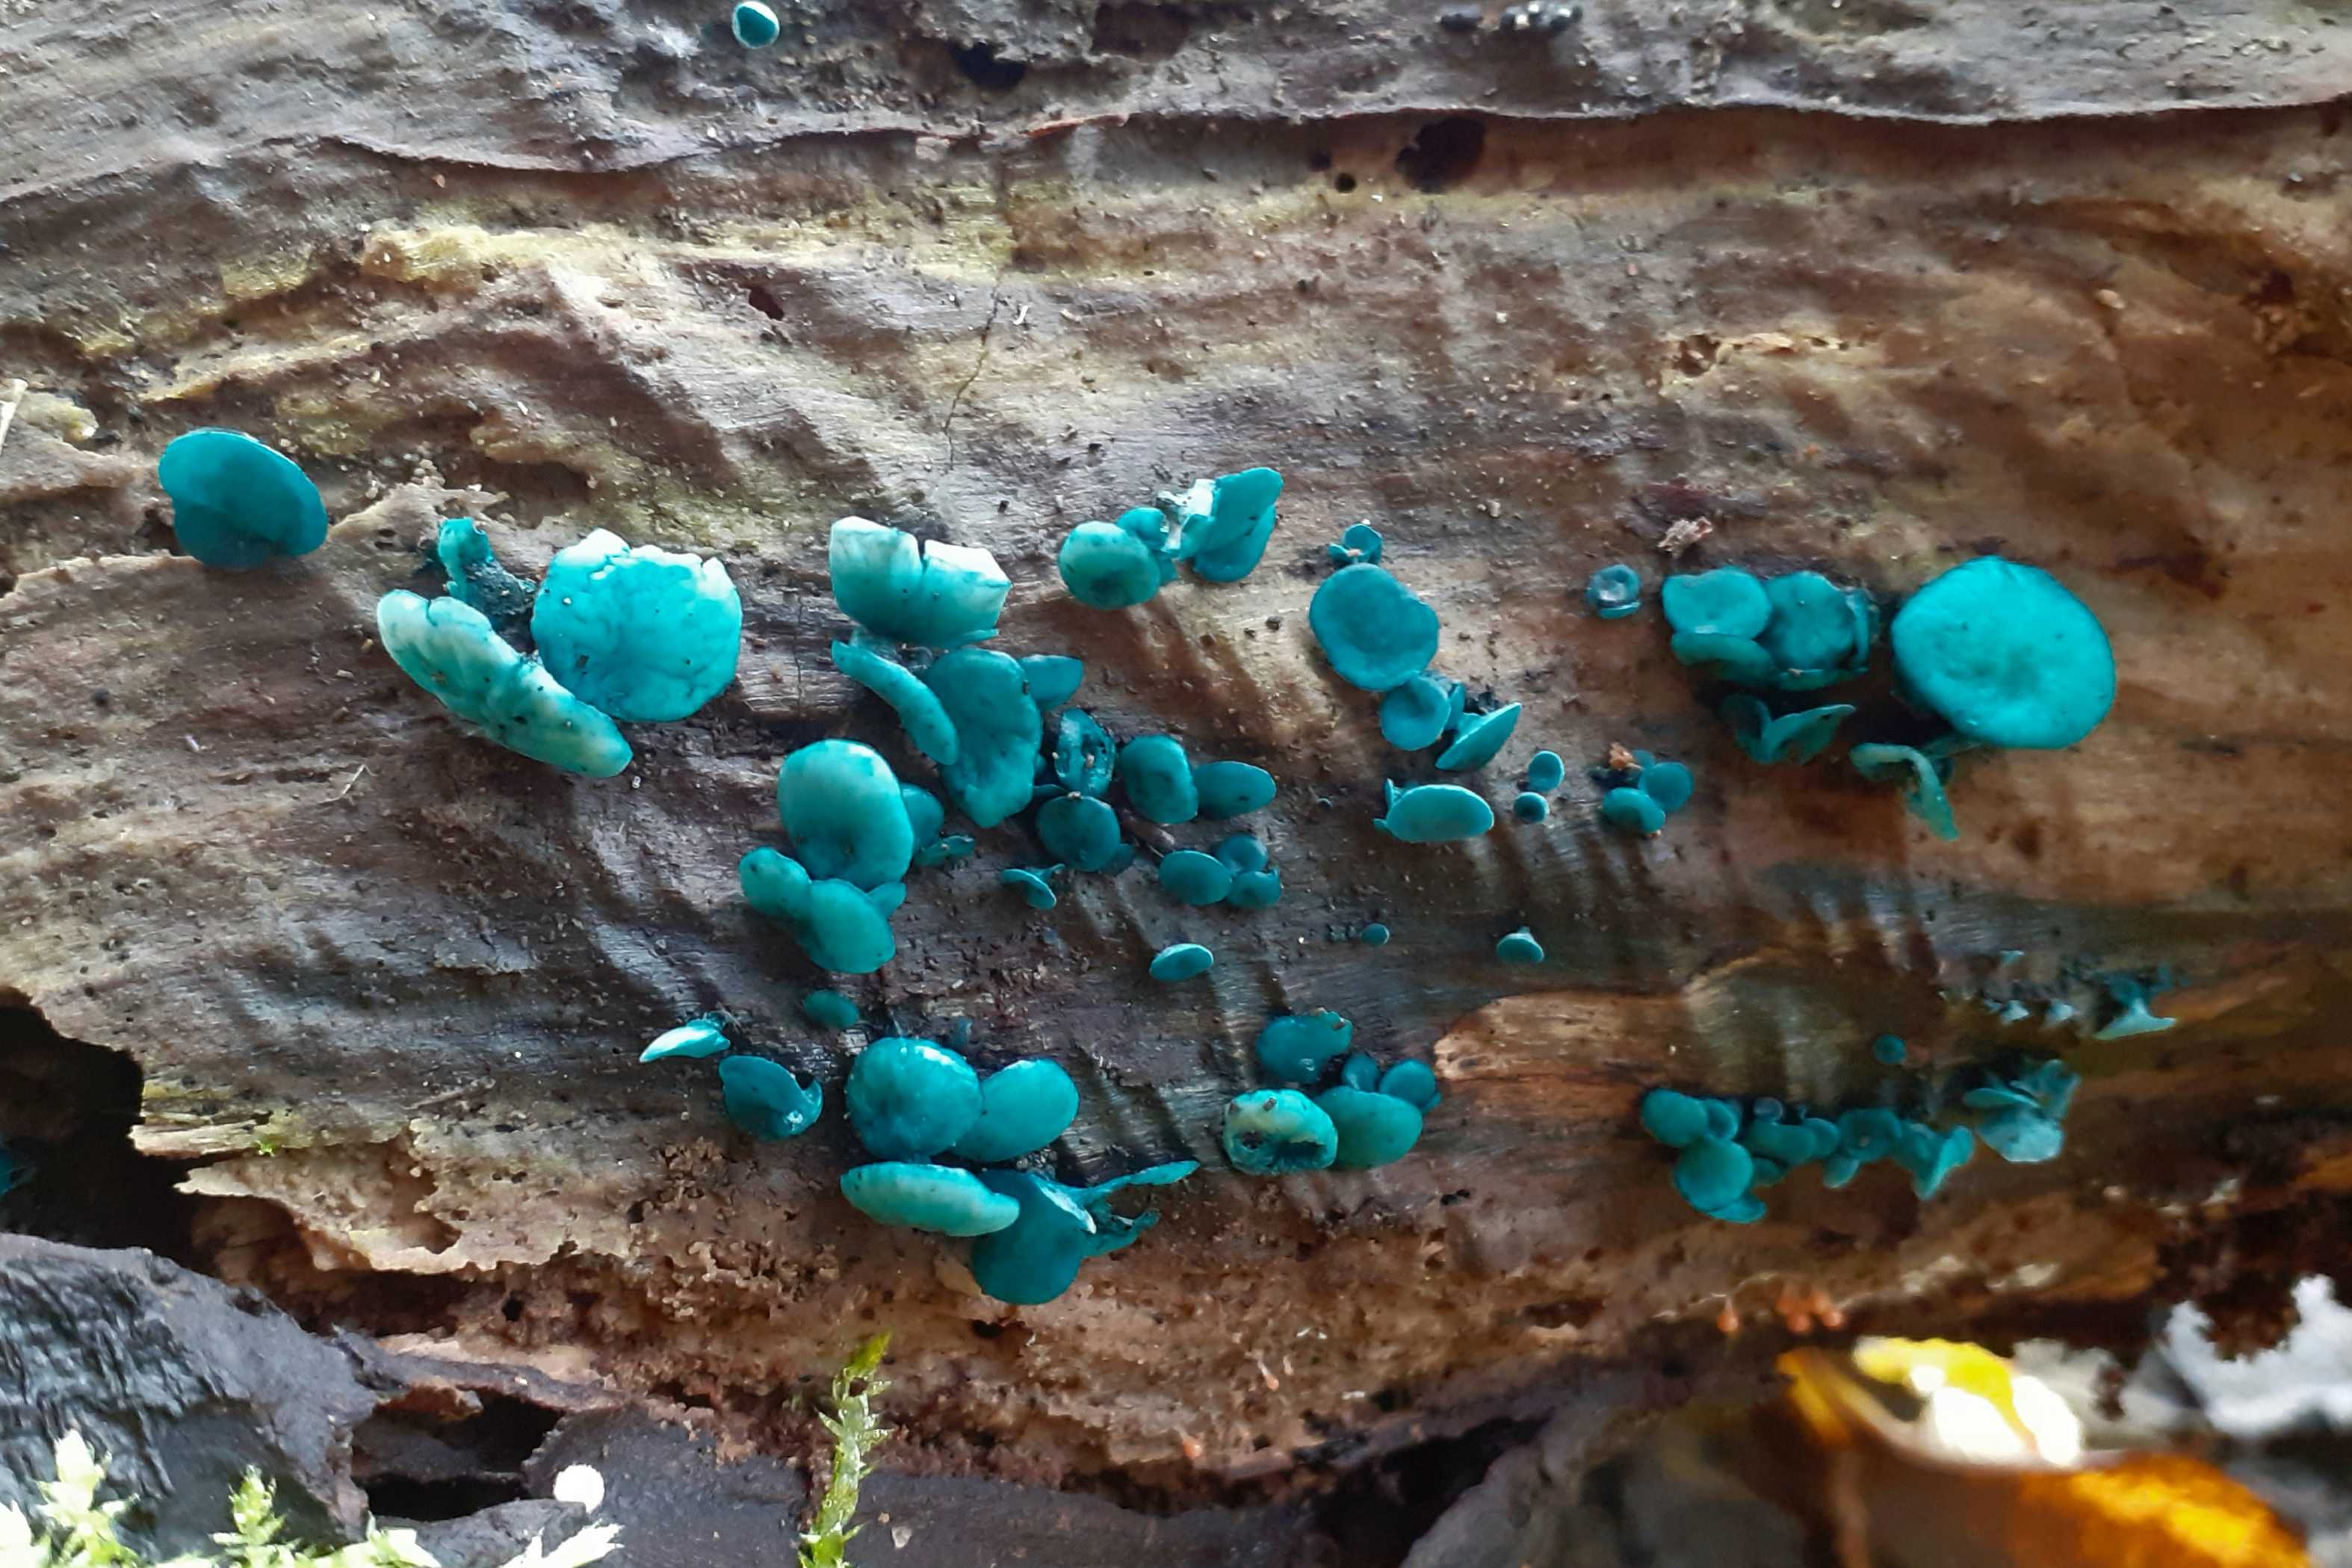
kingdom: Fungi
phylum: Ascomycota
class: Leotiomycetes
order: Helotiales
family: Chlorociboriaceae
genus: Chlorociboria
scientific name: Chlorociboria aeruginascens
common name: almindelig grønskive
